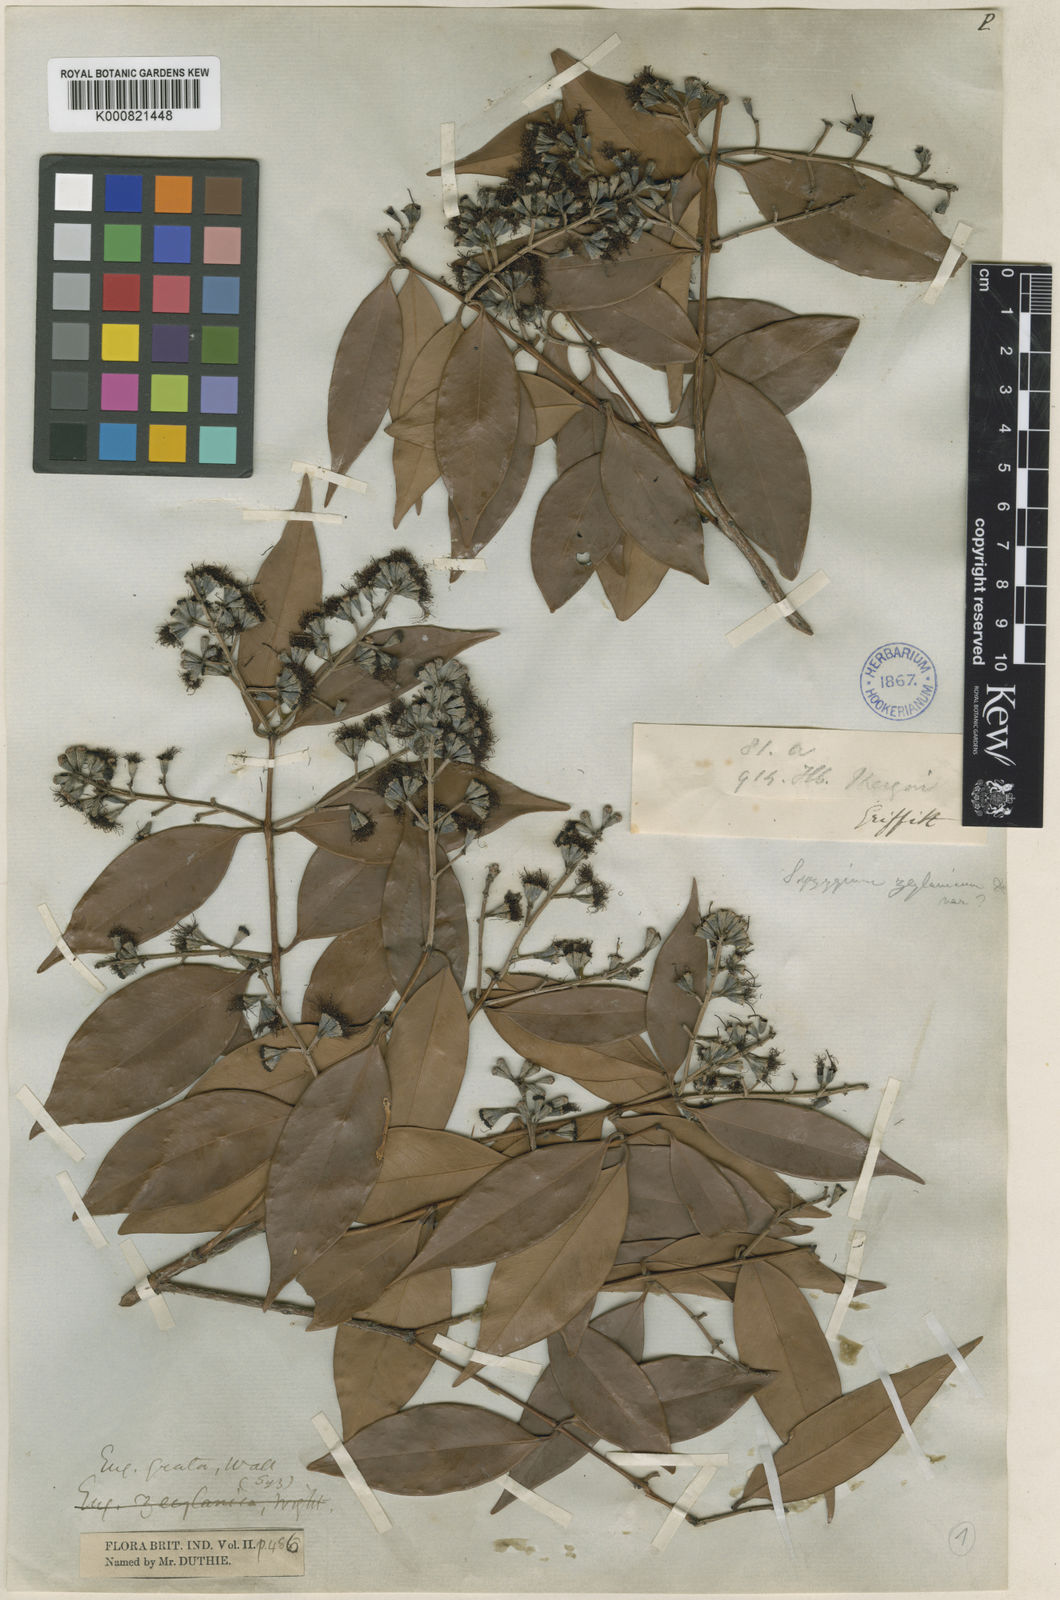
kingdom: Plantae
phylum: Tracheophyta
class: Magnoliopsida
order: Myrtales
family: Myrtaceae
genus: Syzygium
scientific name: Syzygium
